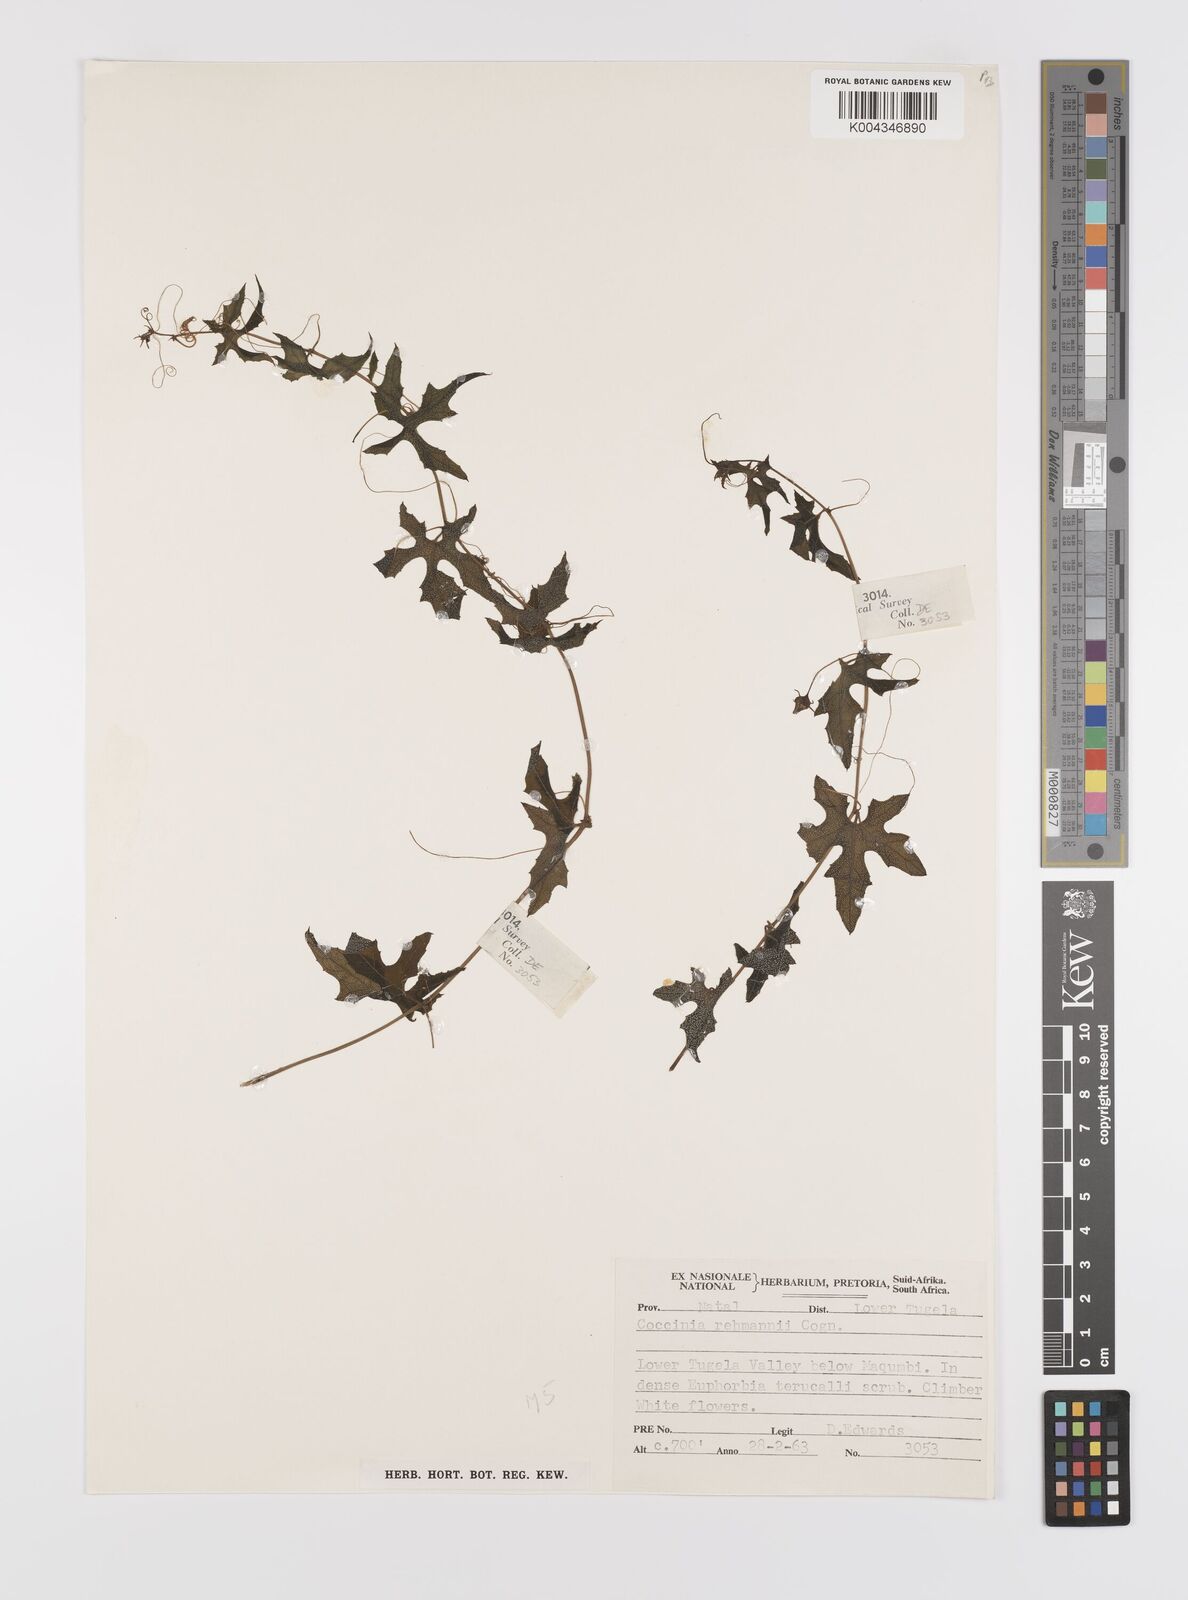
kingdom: Plantae
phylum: Tracheophyta
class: Magnoliopsida
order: Cucurbitales
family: Cucurbitaceae
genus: Coccinia
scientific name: Coccinia rehmannii
